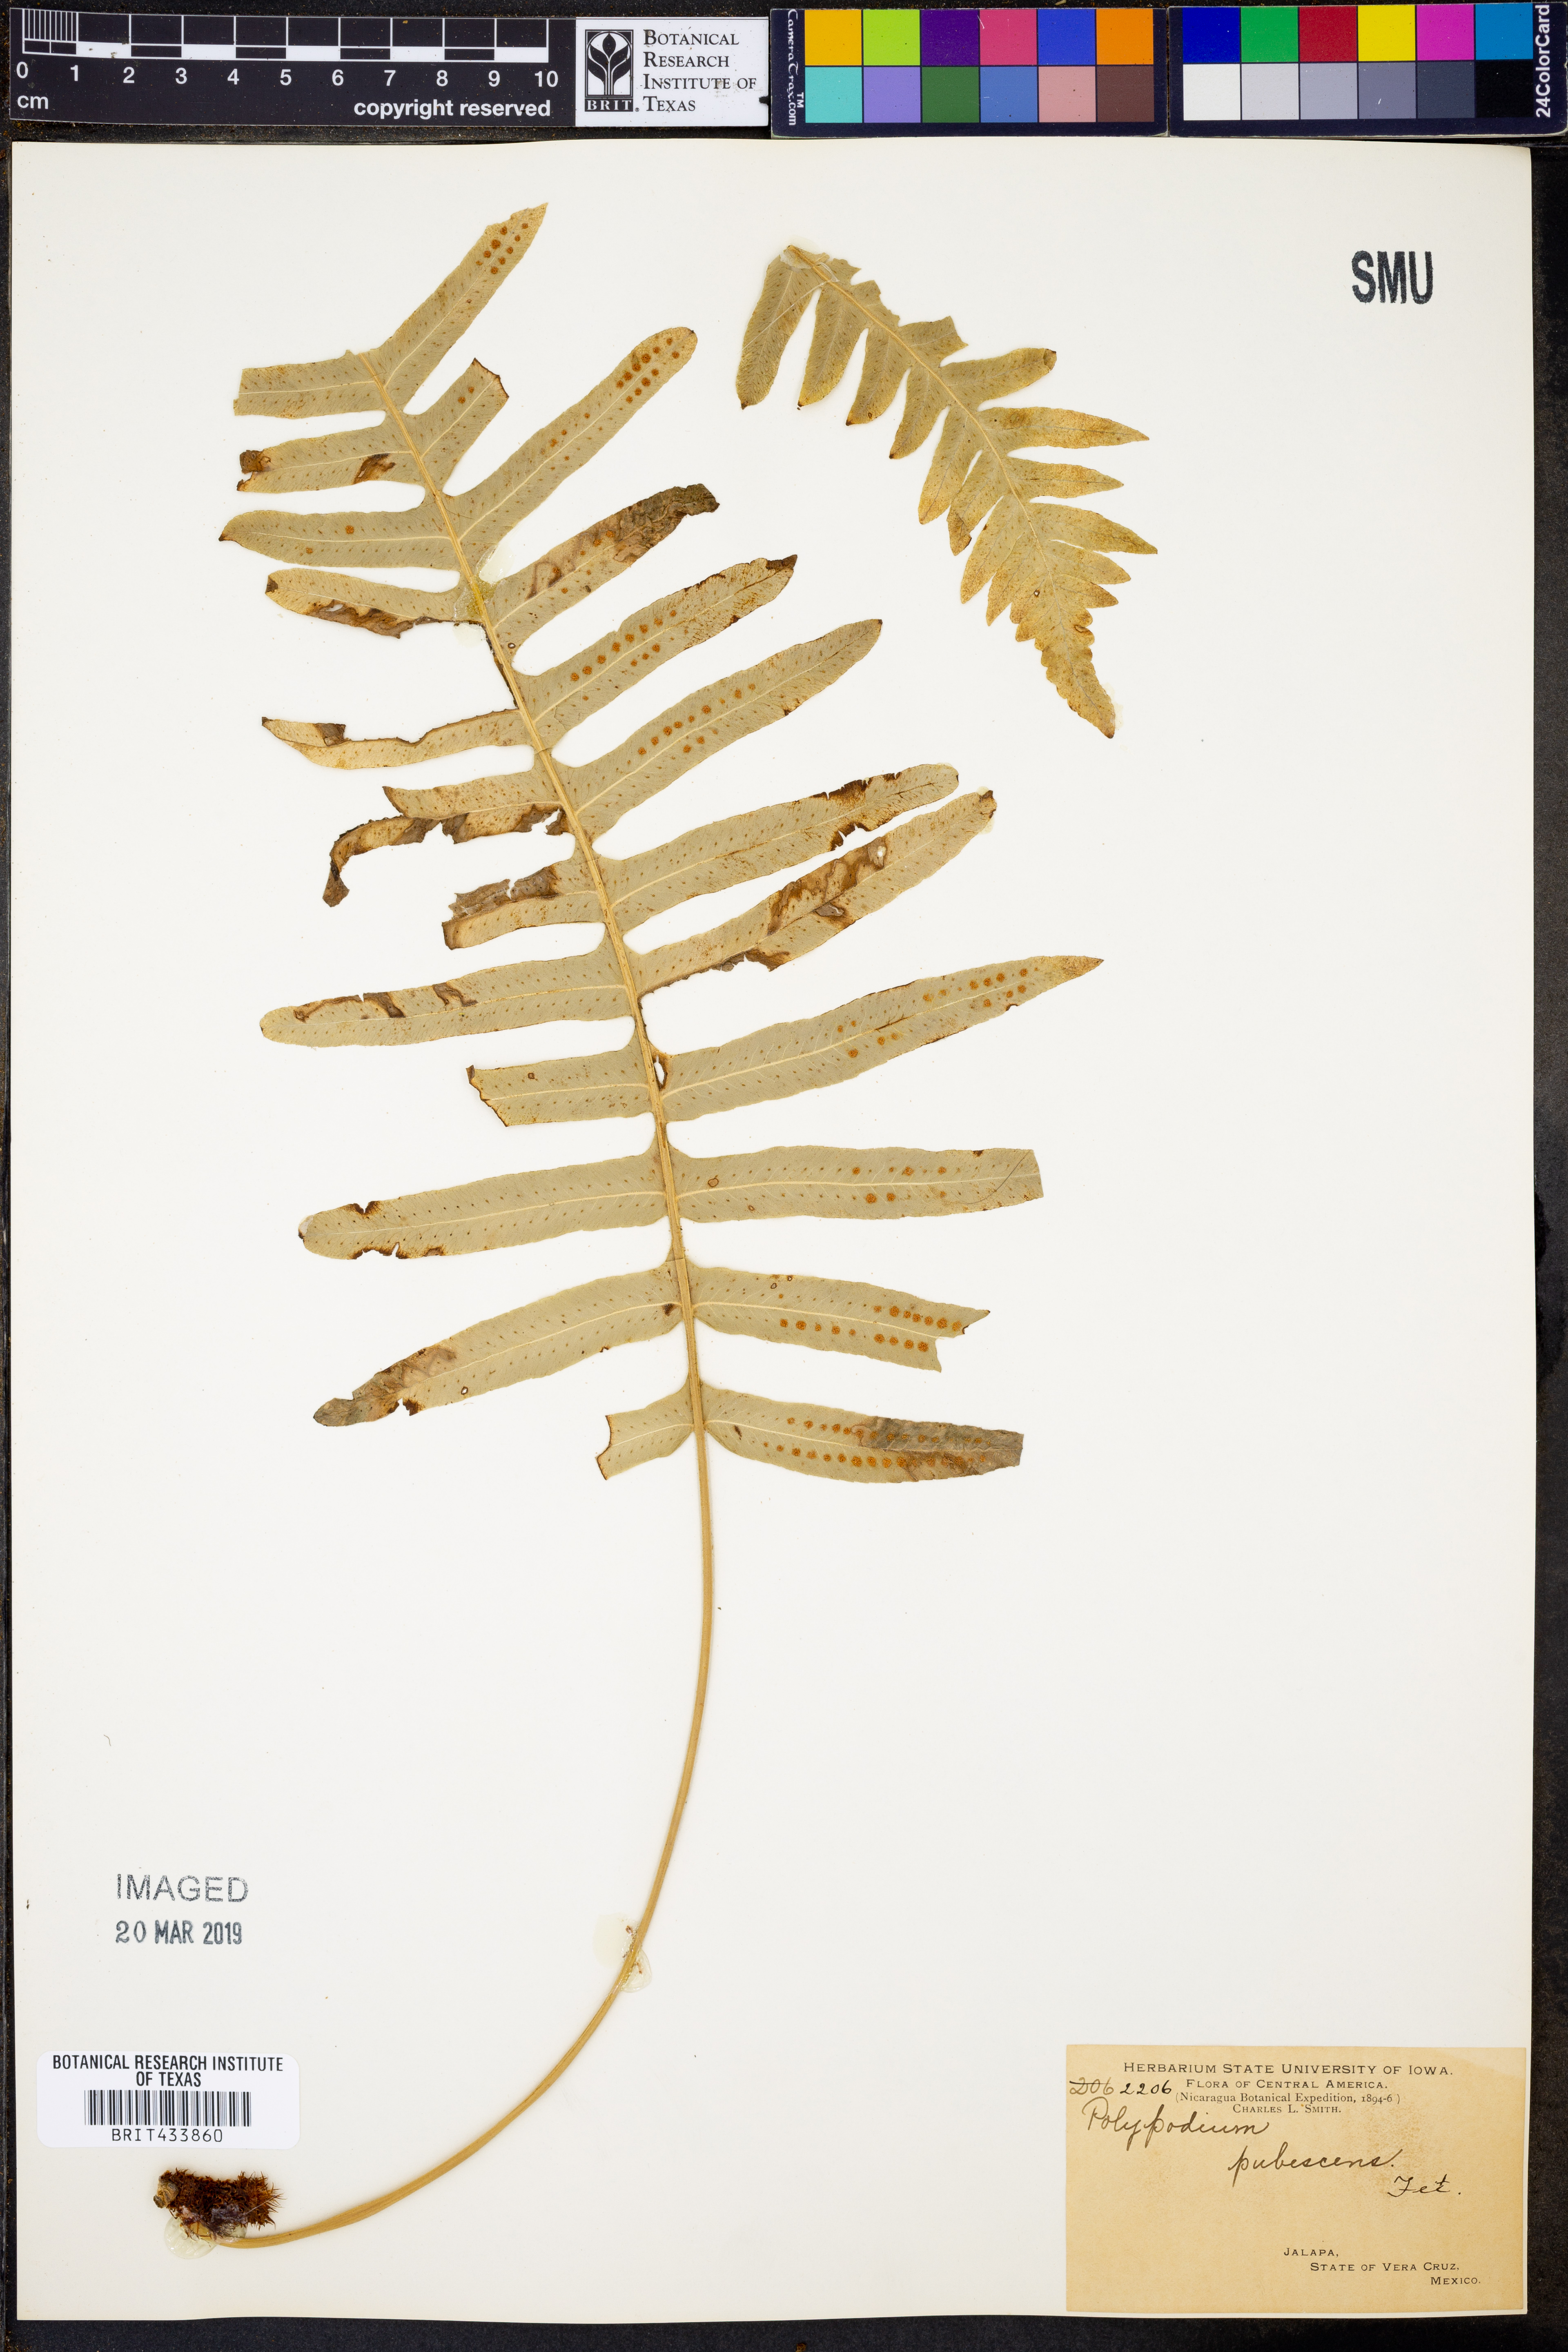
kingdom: Plantae
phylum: Tracheophyta
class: Polypodiopsida
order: Polypodiales
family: Dryopteridaceae
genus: Polystichopsis
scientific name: Polystichopsis pubescens
